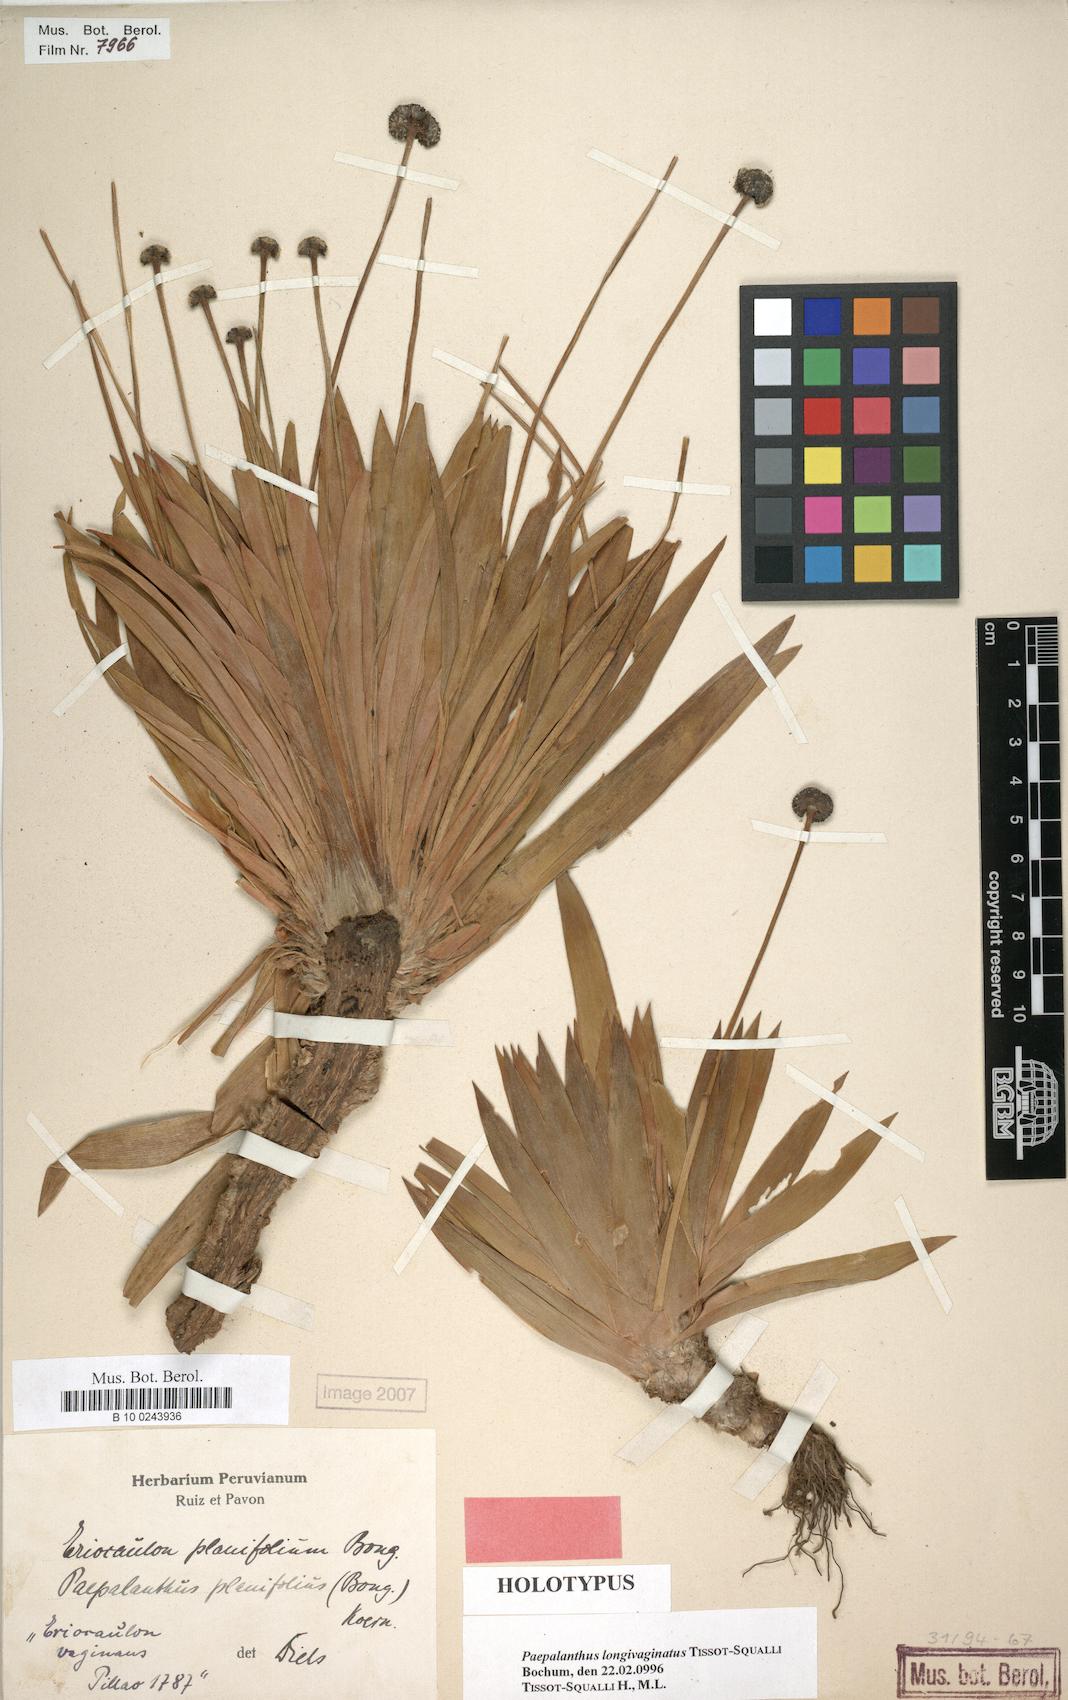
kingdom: Plantae
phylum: Tracheophyta
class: Liliopsida
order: Poales
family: Eriocaulaceae
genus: Paepalanthus
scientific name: Paepalanthus longivaginatus
